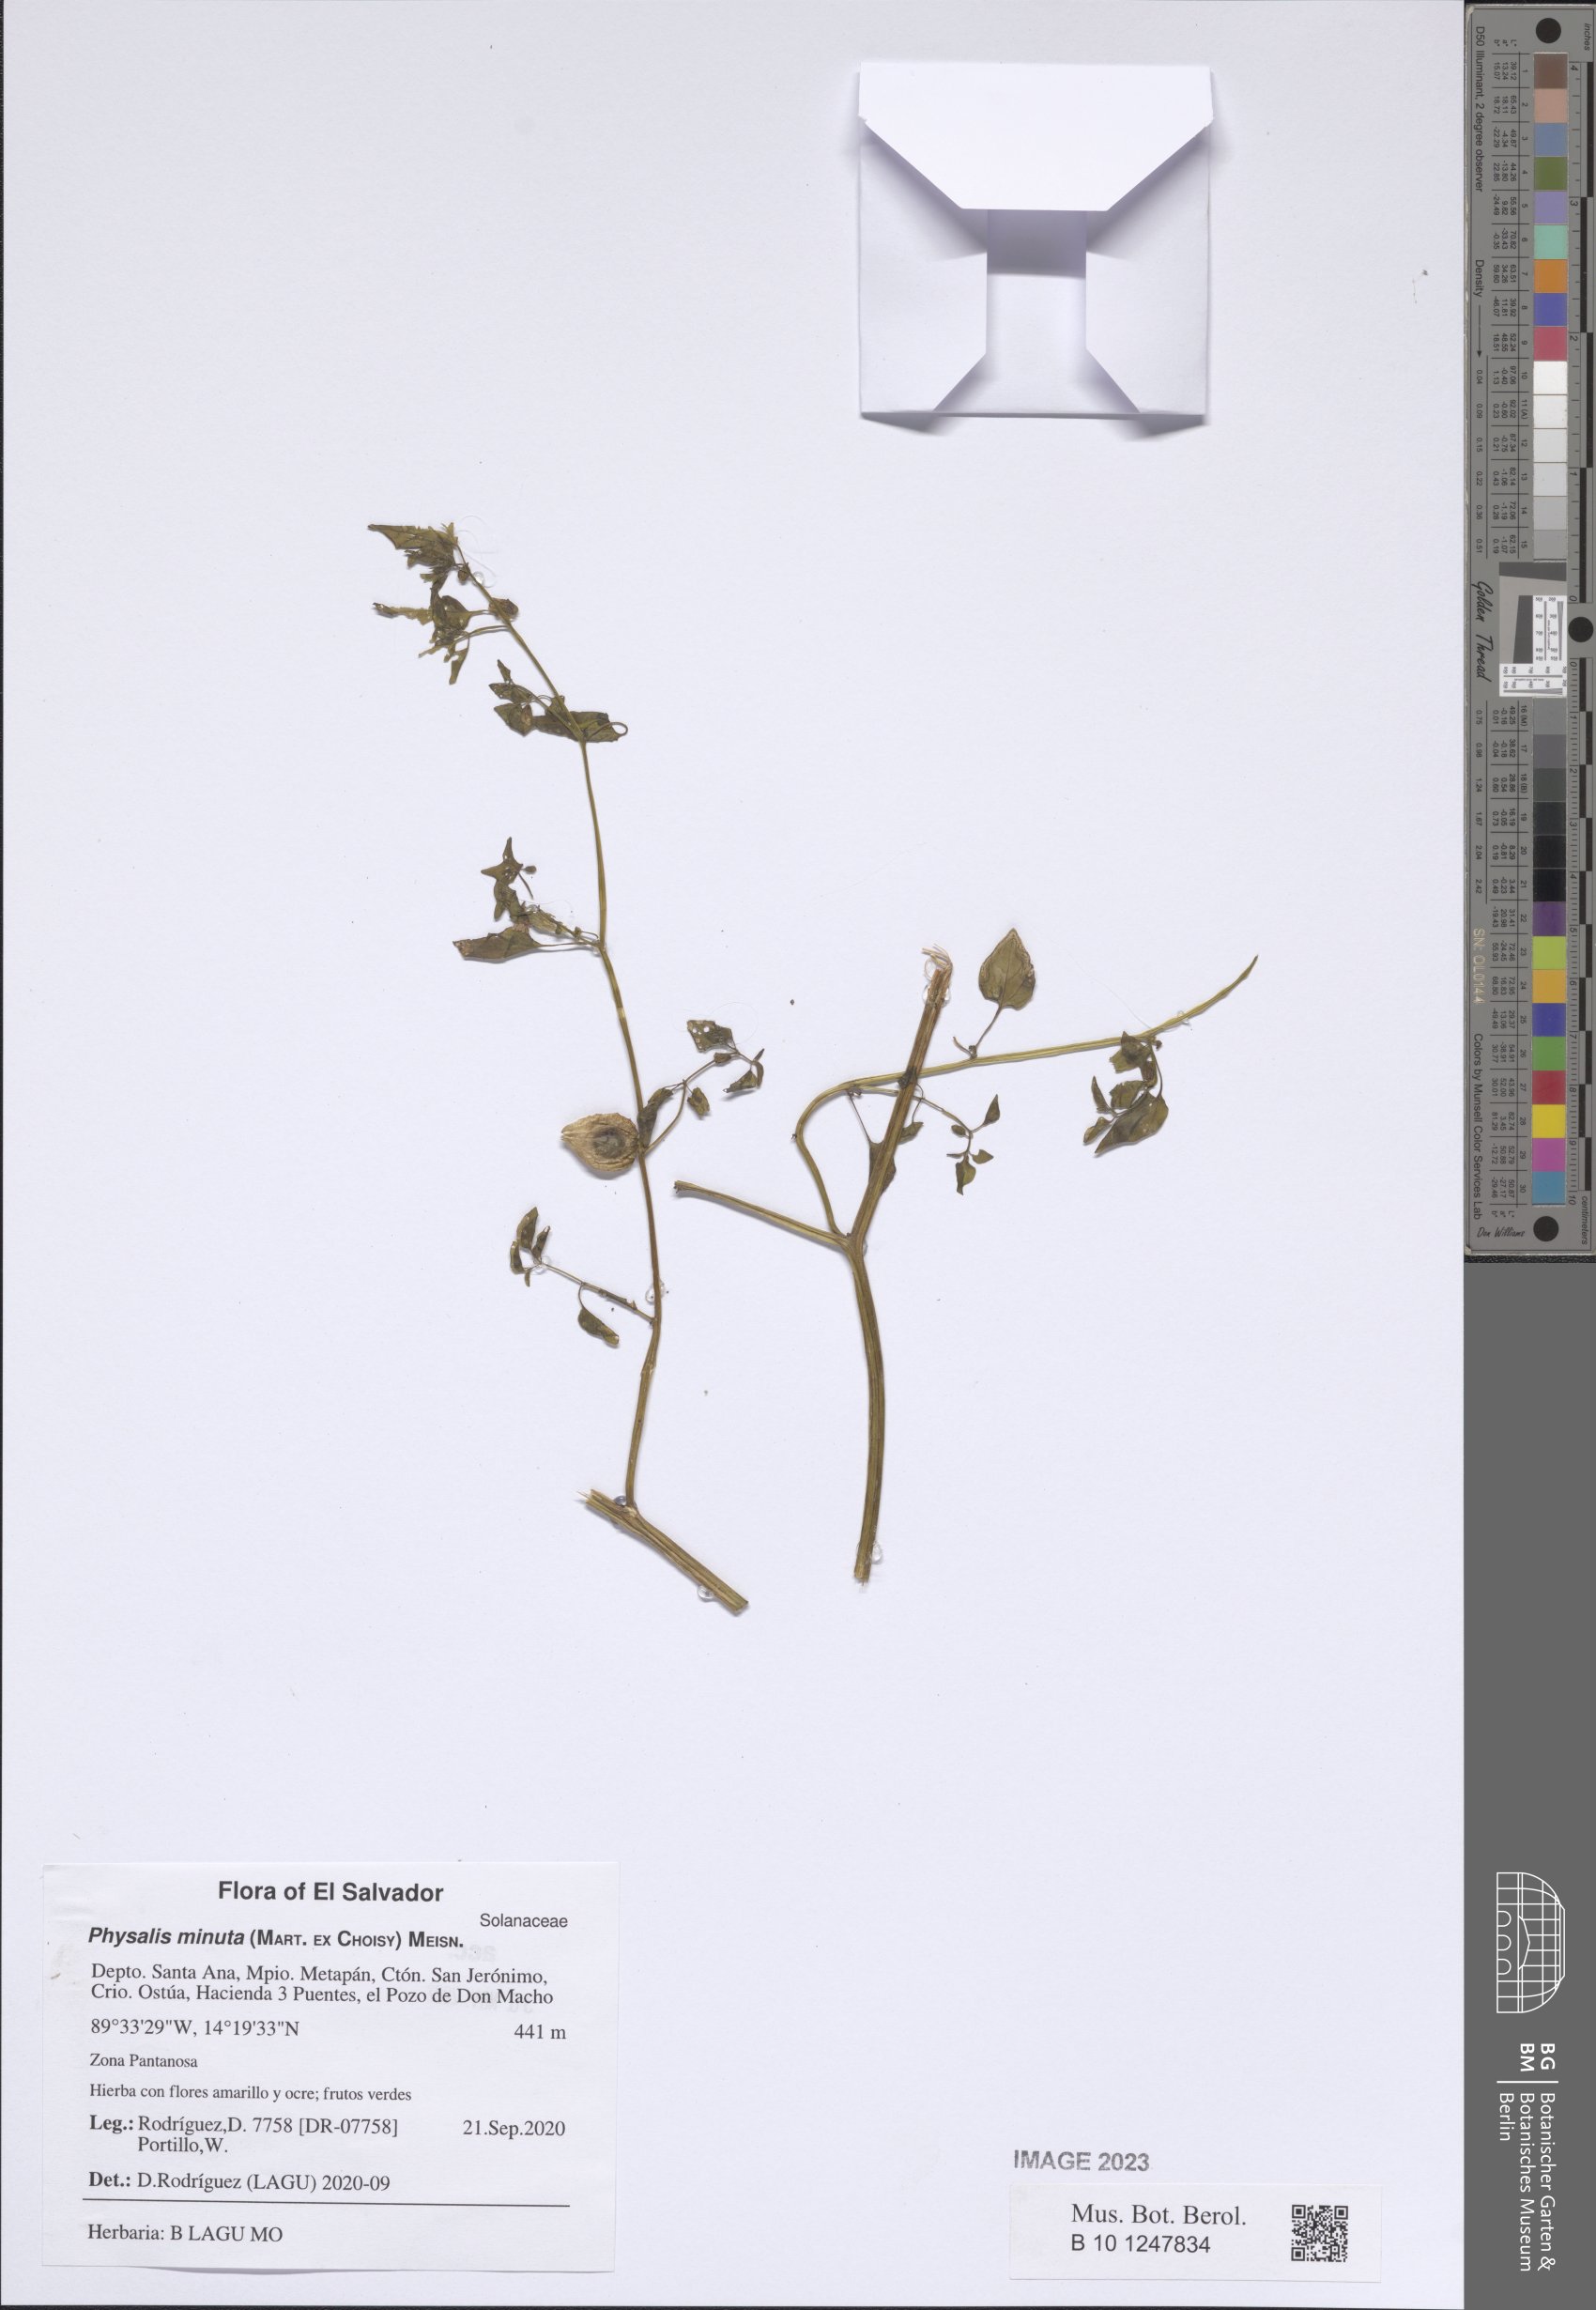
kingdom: Plantae
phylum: Tracheophyta
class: Magnoliopsida
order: Solanales
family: Solanaceae
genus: Physalis
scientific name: Physalis minuta
